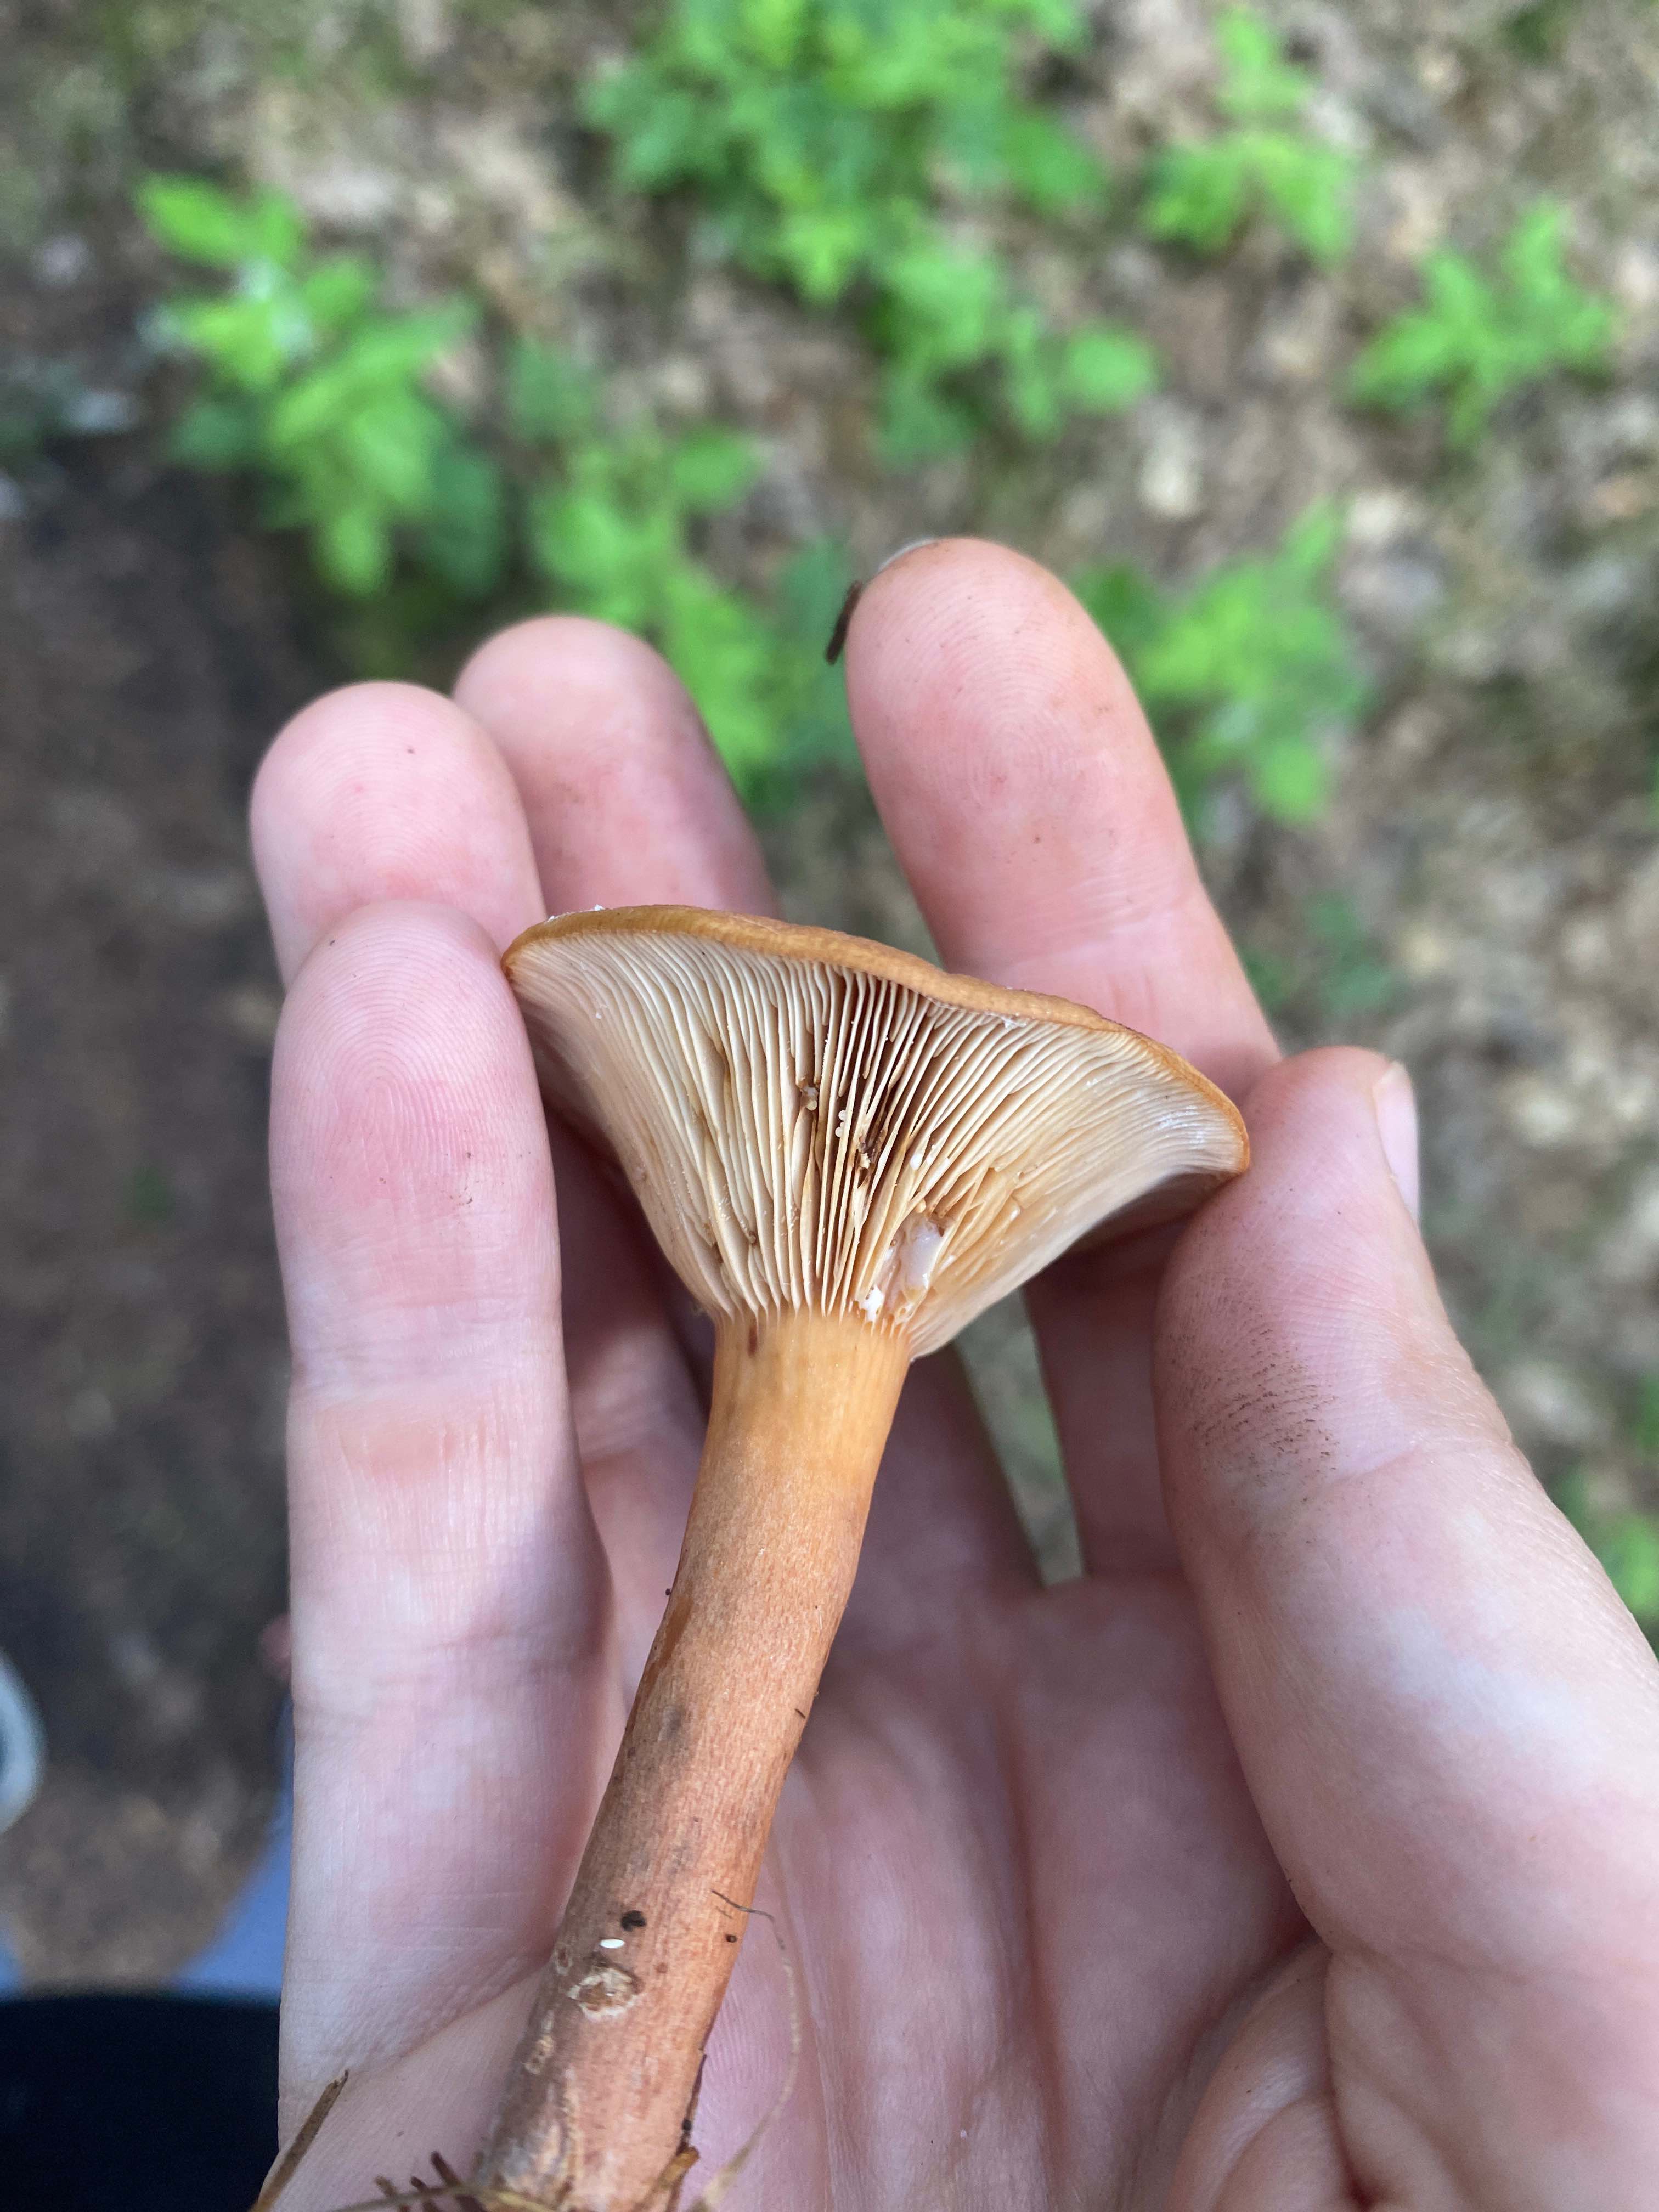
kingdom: Fungi
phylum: Basidiomycota
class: Agaricomycetes
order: Russulales
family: Russulaceae
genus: Lactarius
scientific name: Lactarius tabidus
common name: rynket mælkehat
